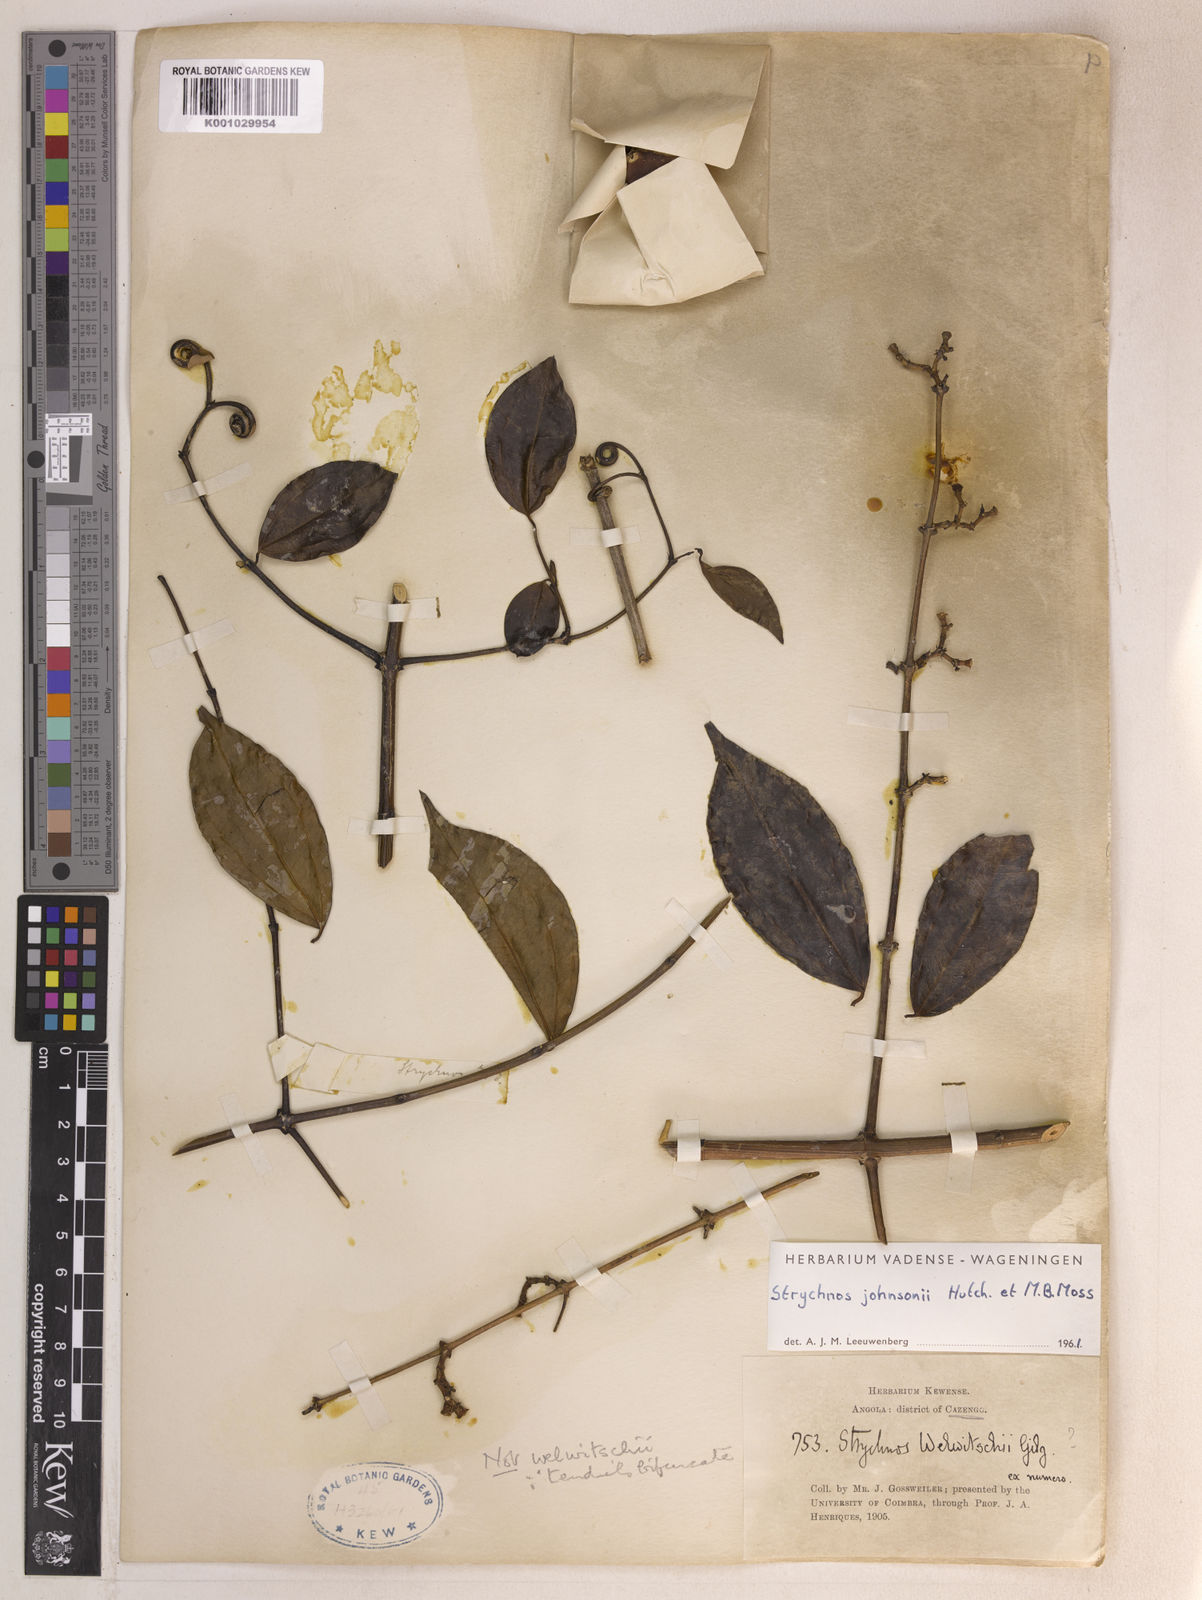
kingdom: Plantae
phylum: Tracheophyta
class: Magnoliopsida
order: Gentianales
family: Loganiaceae
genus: Strychnos
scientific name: Strychnos johnsonii
